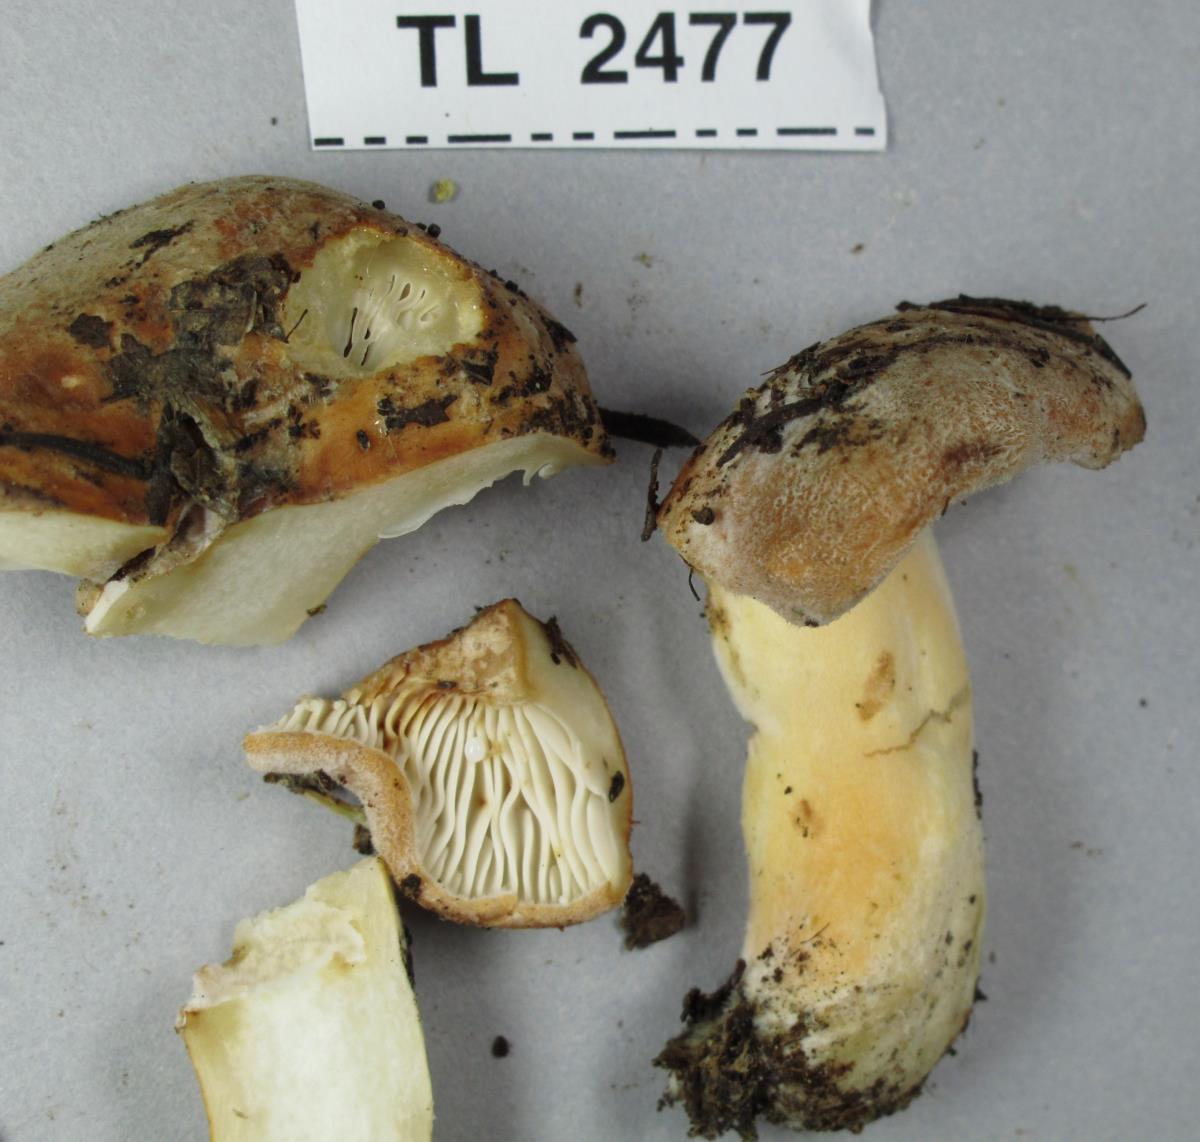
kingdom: Fungi
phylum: Basidiomycota
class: Agaricomycetes
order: Russulales
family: Russulaceae
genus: Lactarius
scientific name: Lactarius
